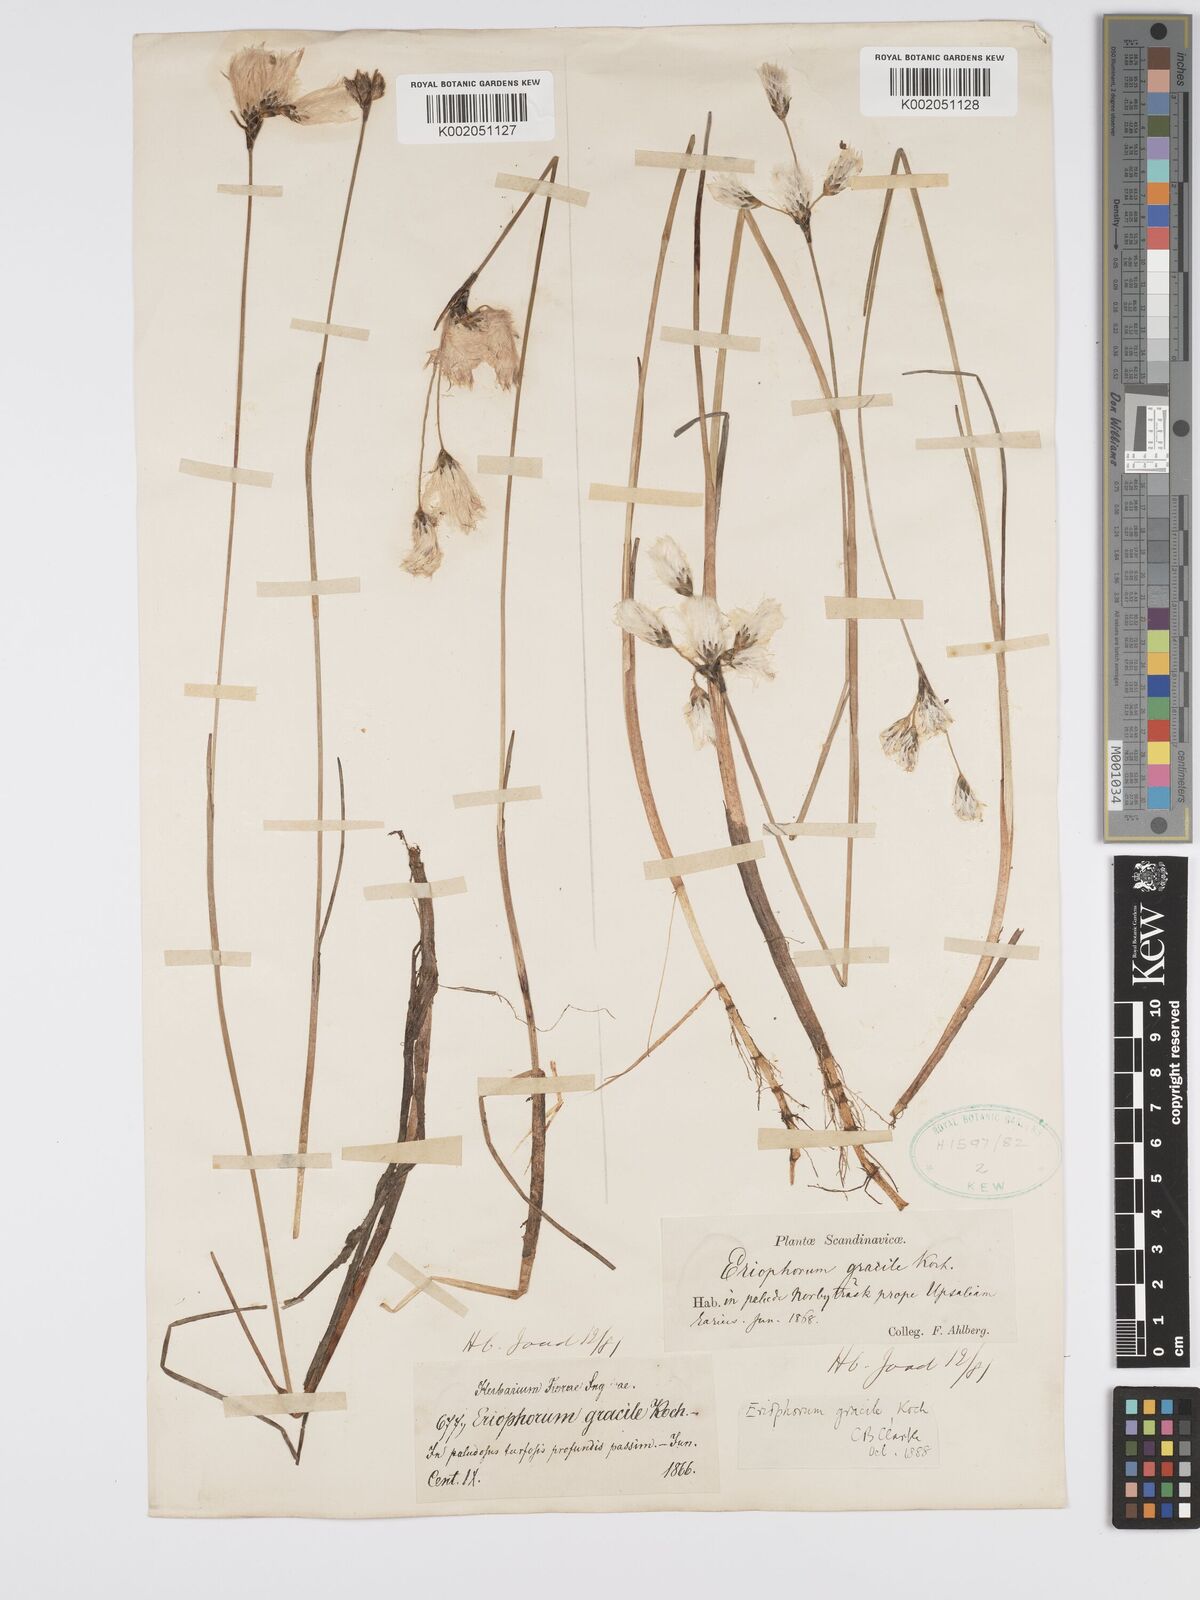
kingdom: Plantae
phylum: Tracheophyta
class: Liliopsida
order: Poales
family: Cyperaceae
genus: Eriophorum
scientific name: Eriophorum gracile
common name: Slender cottongrass
